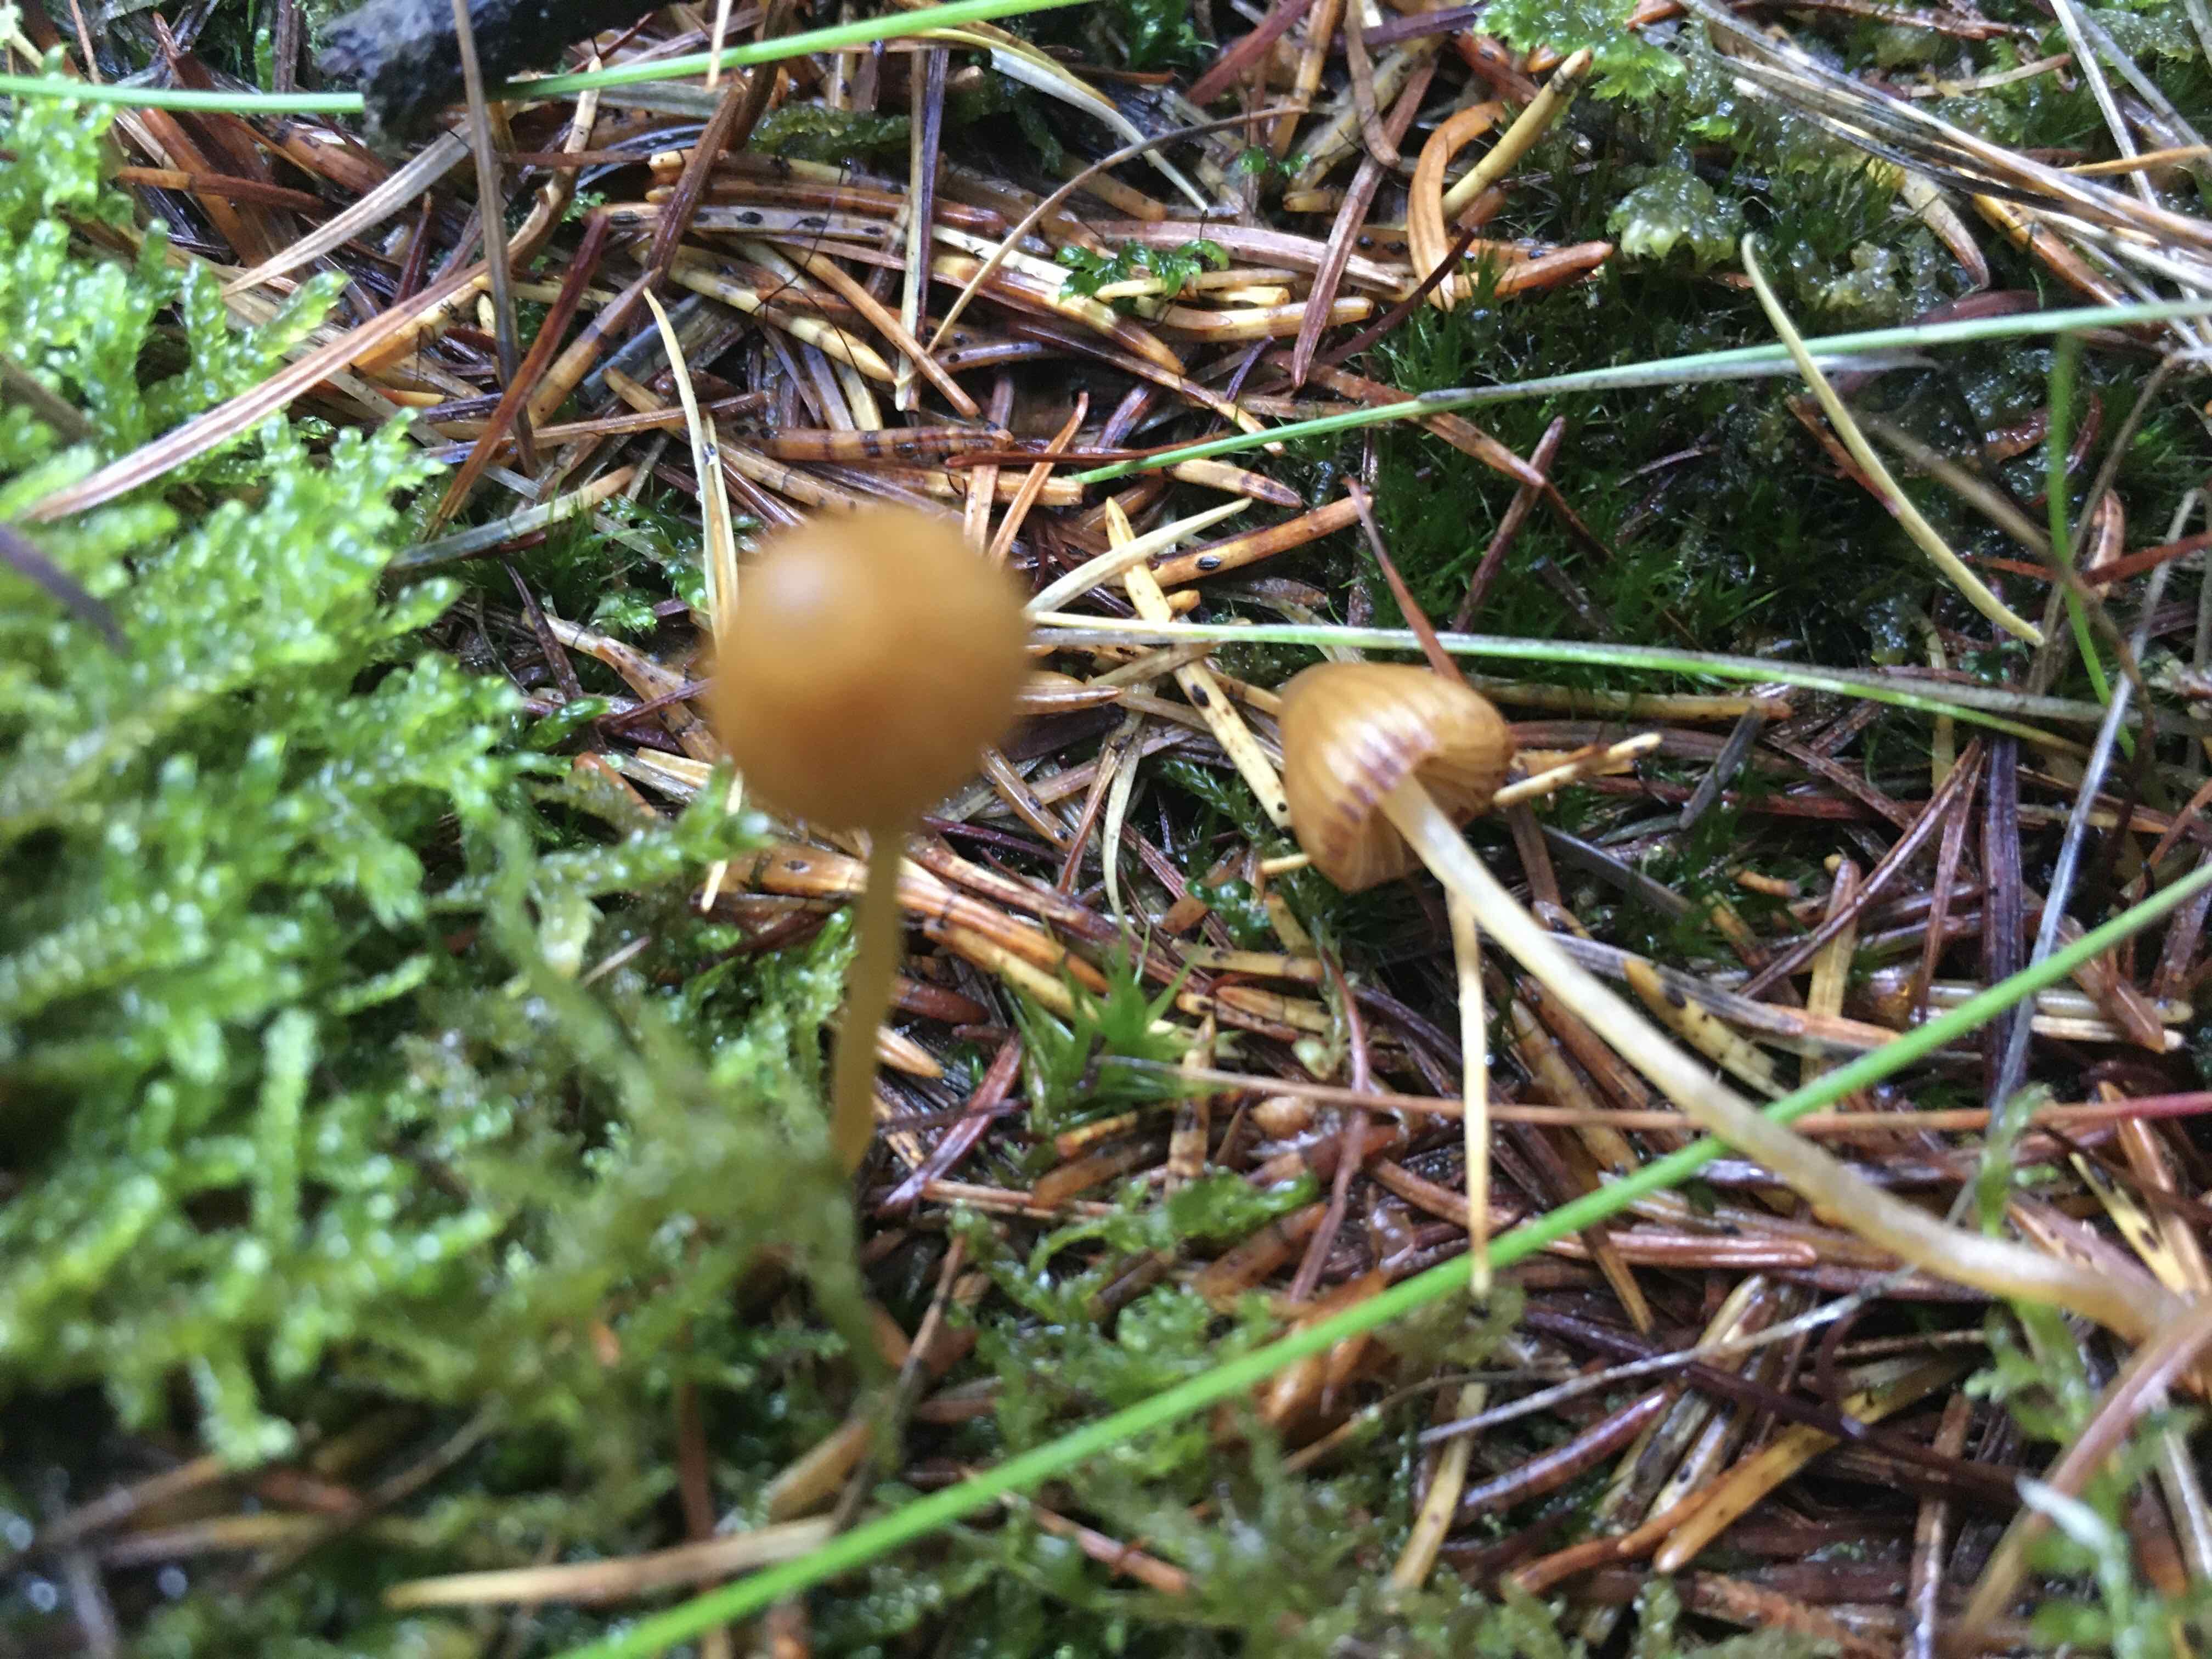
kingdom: Fungi
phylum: Basidiomycota
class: Agaricomycetes
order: Agaricales
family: Hymenogastraceae
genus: Galerina
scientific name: Galerina
